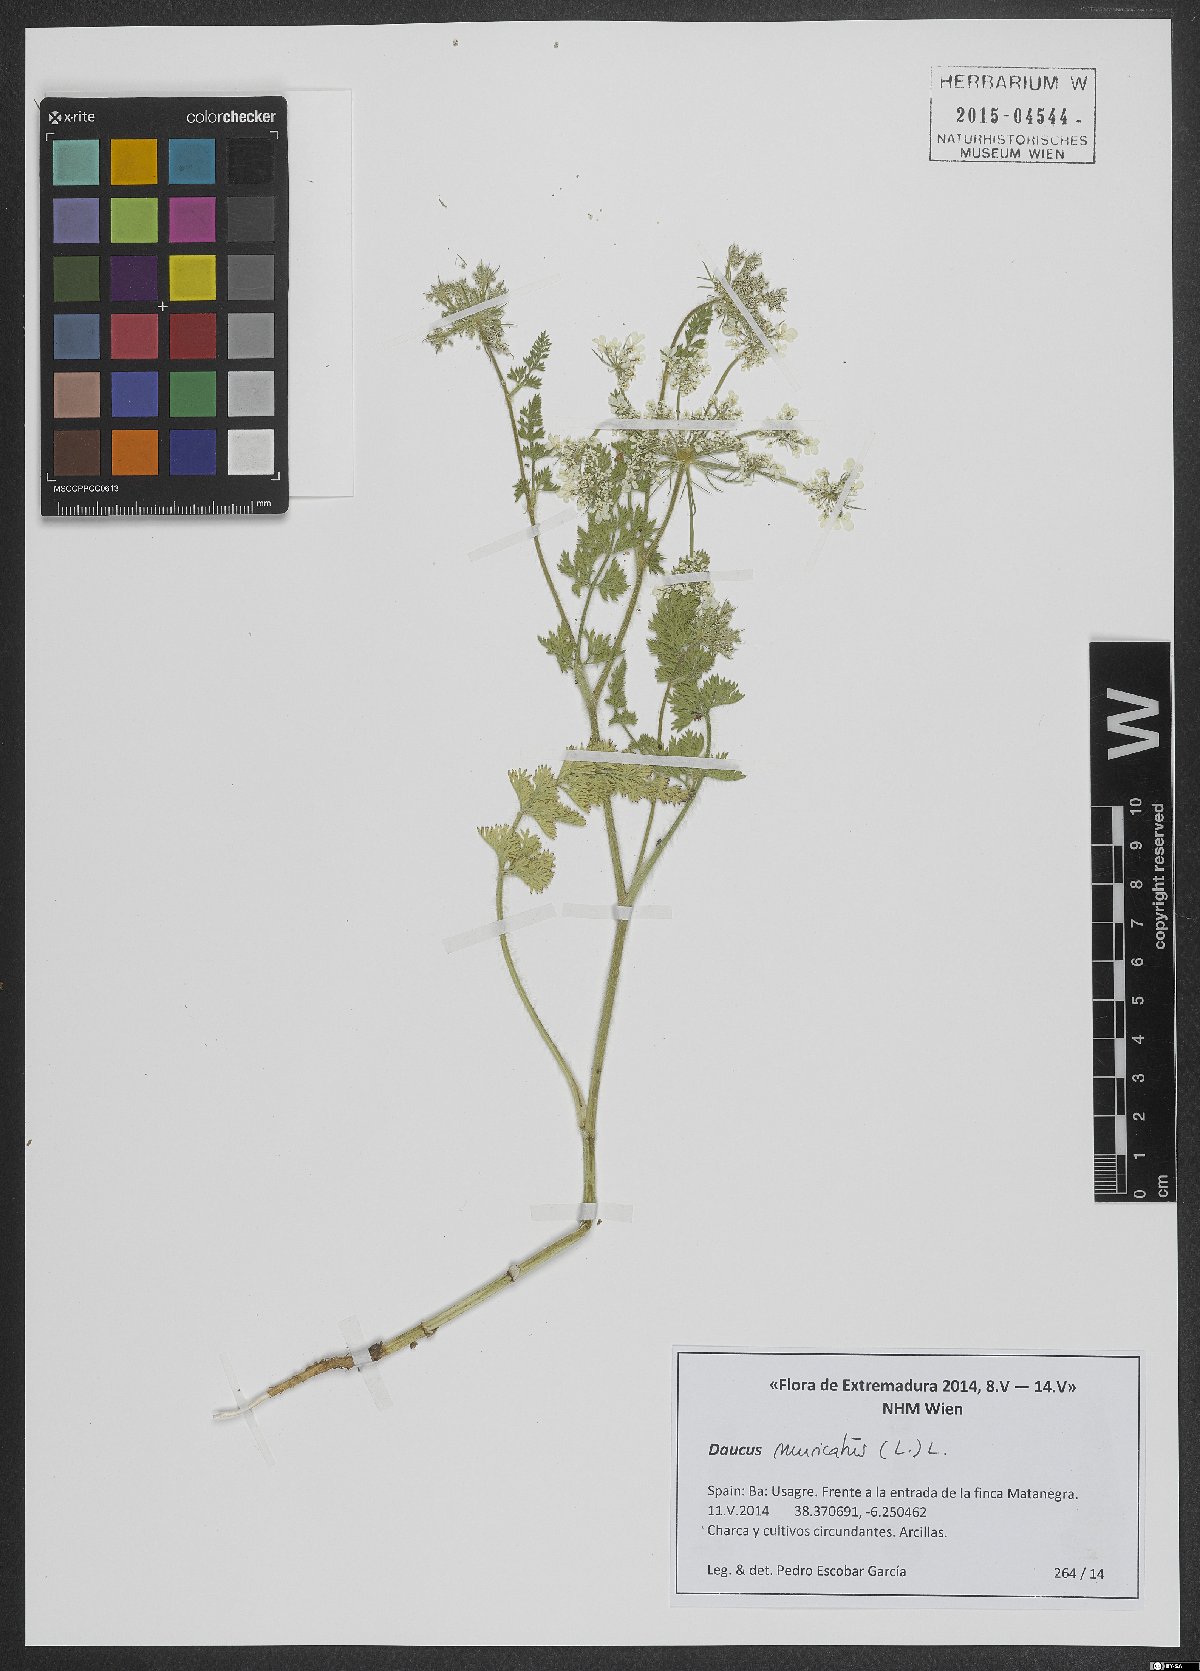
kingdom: Plantae
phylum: Tracheophyta
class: Magnoliopsida
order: Apiales
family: Apiaceae
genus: Daucus
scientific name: Daucus muricatus
